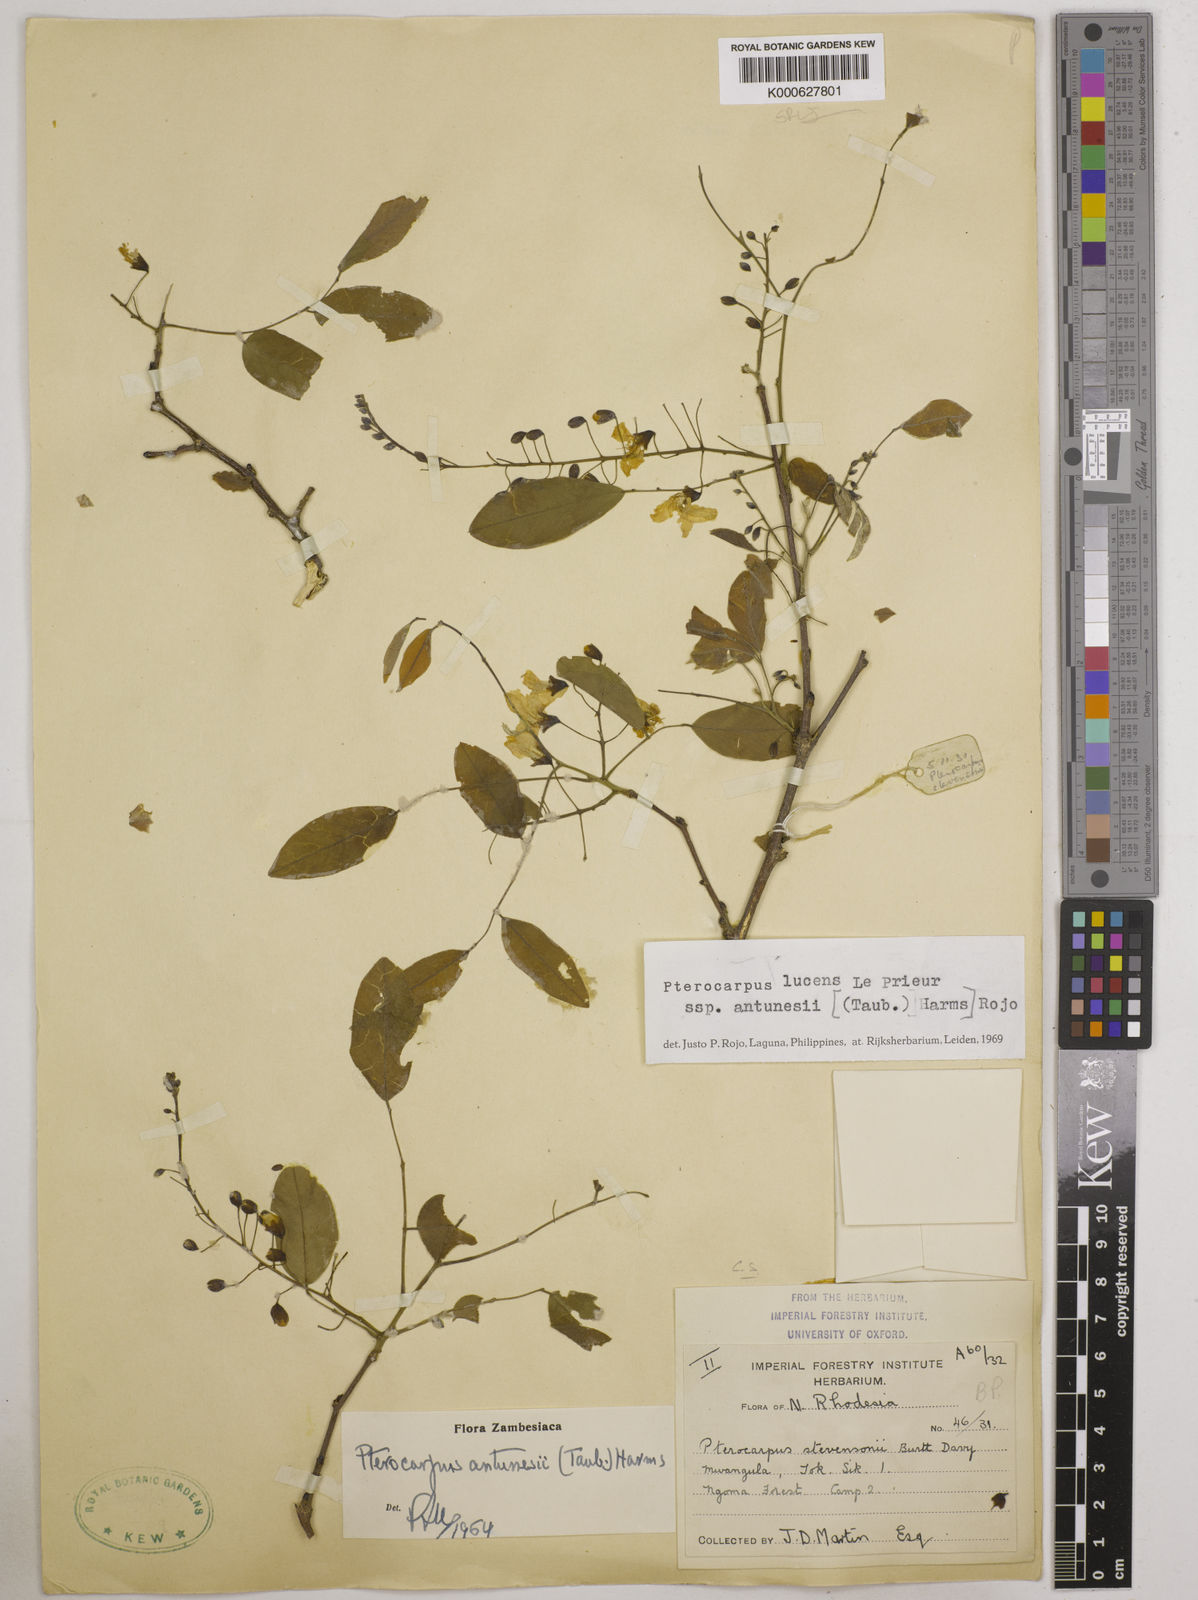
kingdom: Plantae
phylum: Tracheophyta
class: Magnoliopsida
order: Fabales
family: Fabaceae
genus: Pterocarpus
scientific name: Pterocarpus lucens
